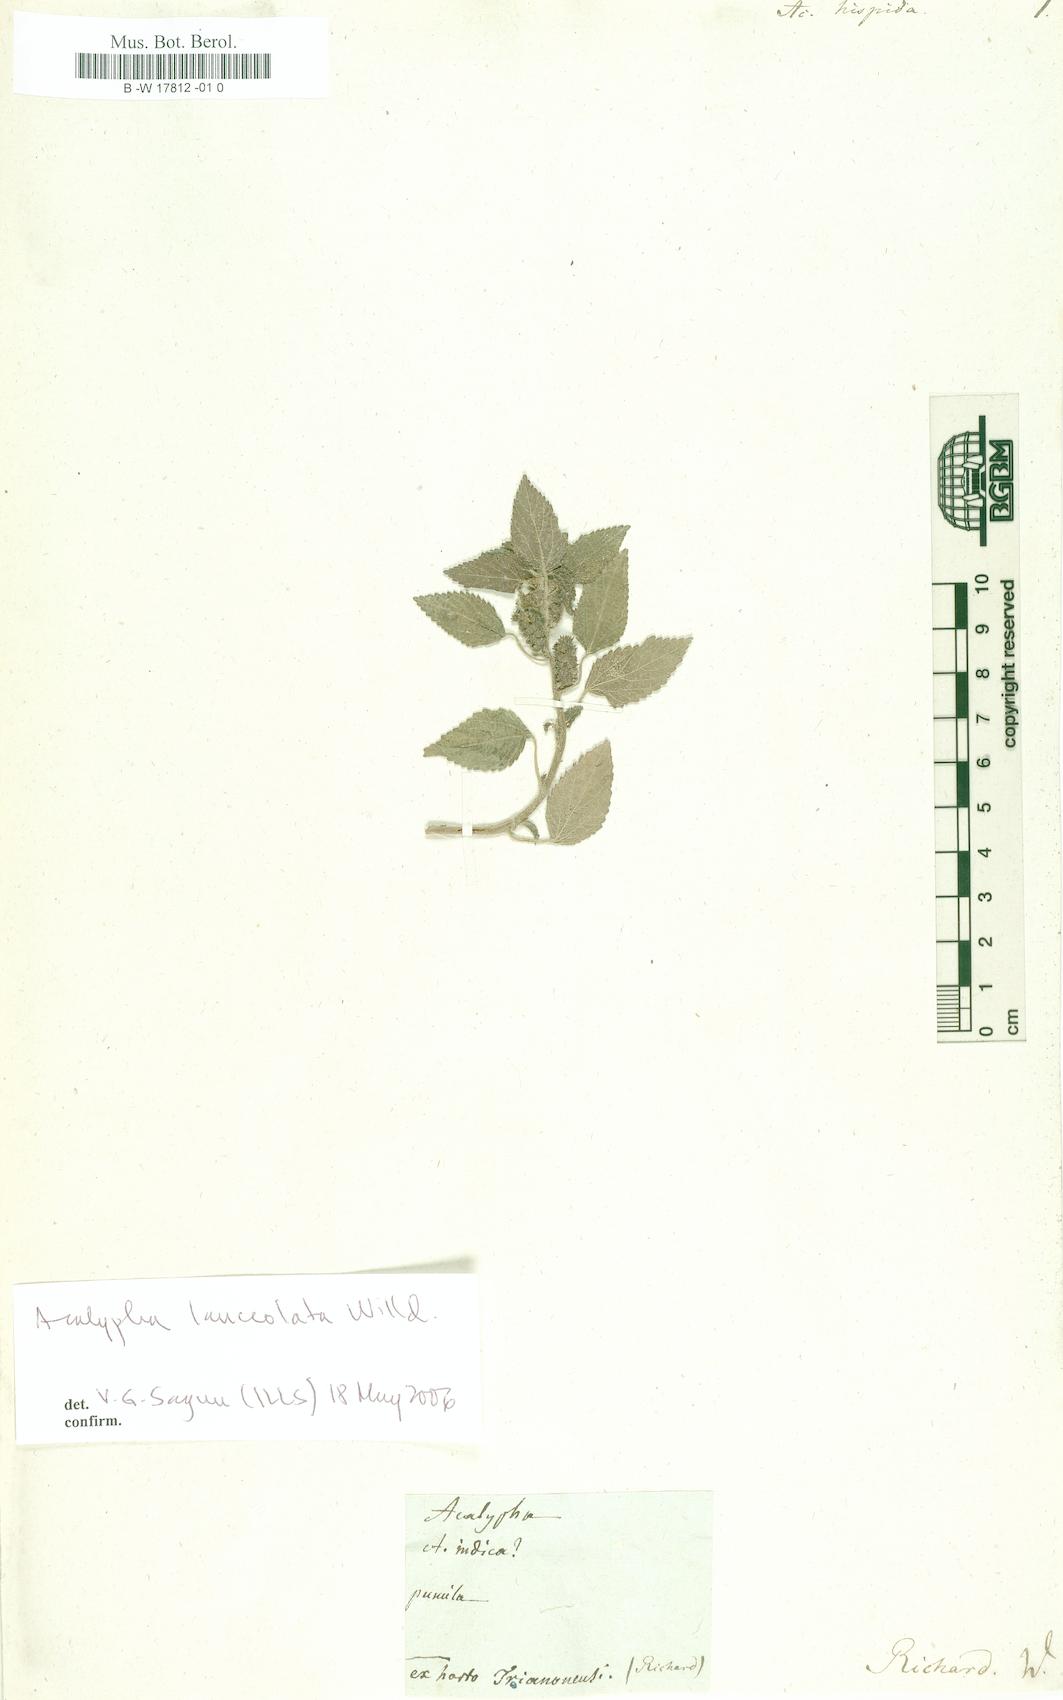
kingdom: Plantae
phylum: Tracheophyta
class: Magnoliopsida
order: Malpighiales
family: Euphorbiaceae
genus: Acalypha
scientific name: Acalypha hispida
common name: Chenilleplant
